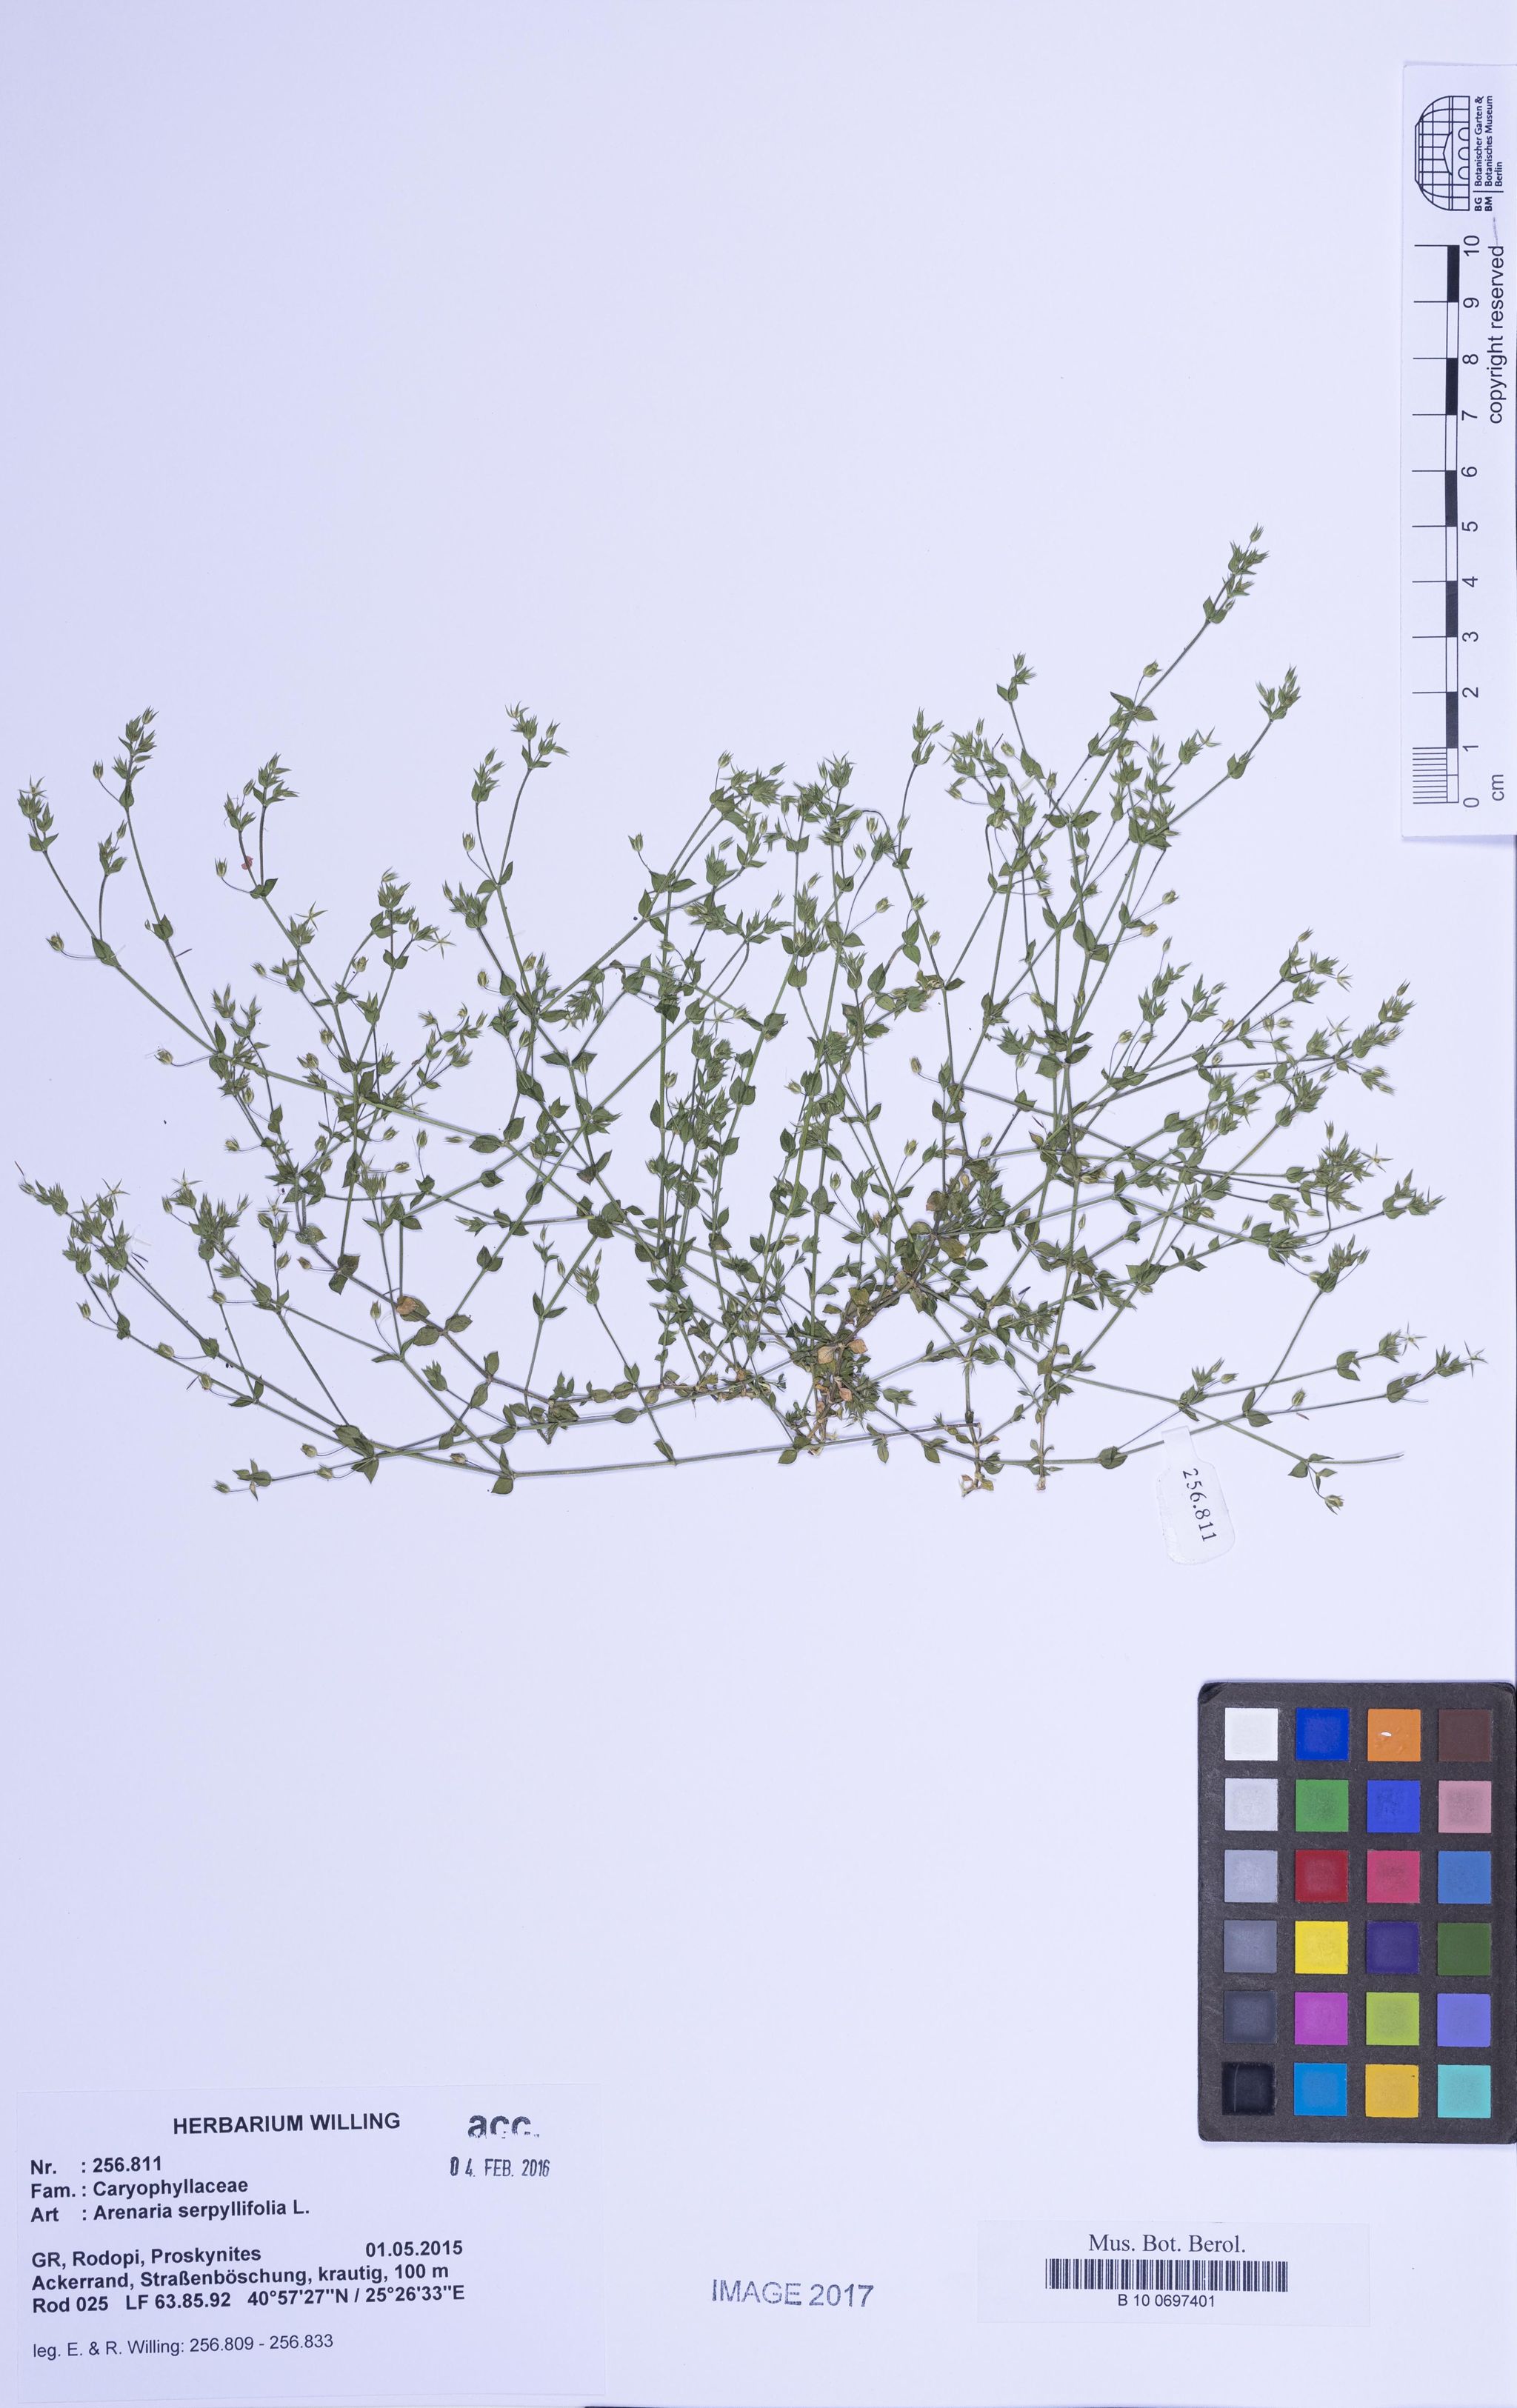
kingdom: Plantae
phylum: Tracheophyta
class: Magnoliopsida
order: Caryophyllales
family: Caryophyllaceae
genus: Arenaria
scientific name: Arenaria serpyllifolia
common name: Thyme-leaved sandwort
